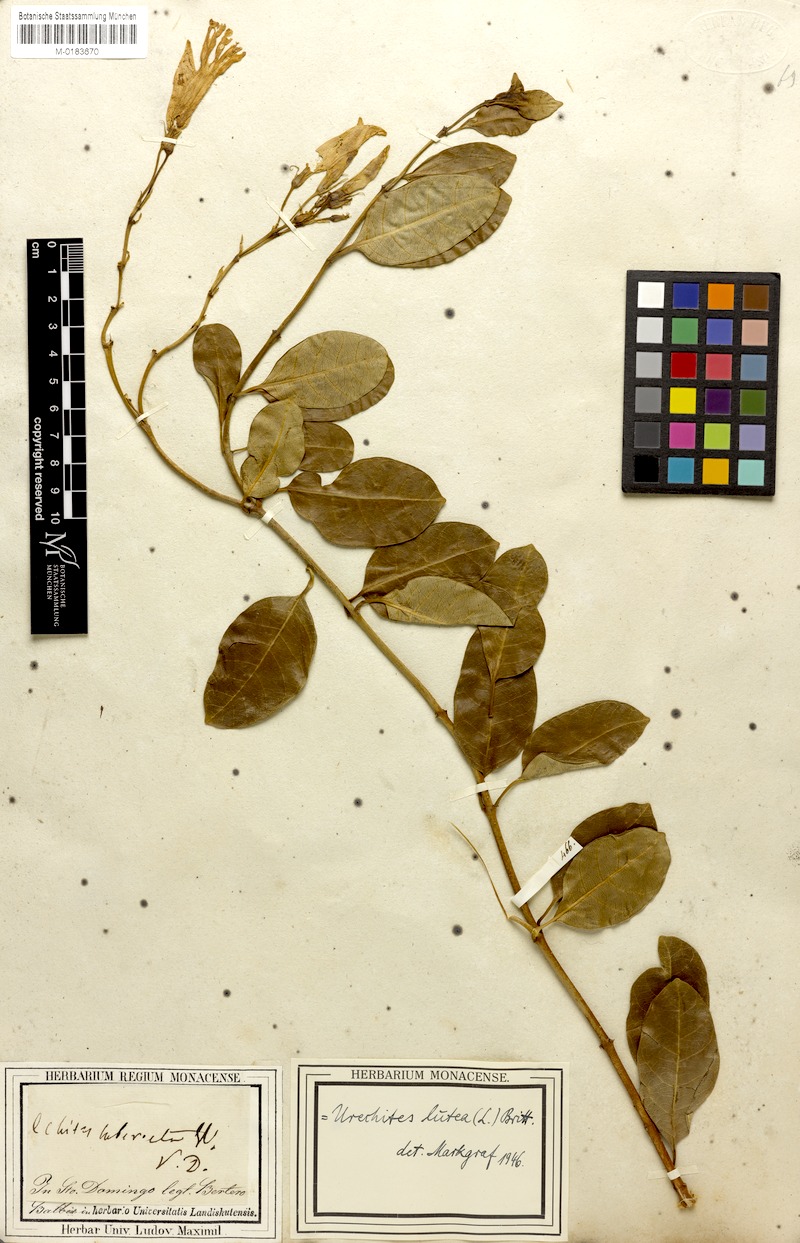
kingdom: Plantae
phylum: Tracheophyta
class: Magnoliopsida
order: Gentianales
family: Apocynaceae
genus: Pentalinon
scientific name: Pentalinon luteum
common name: Licebush
